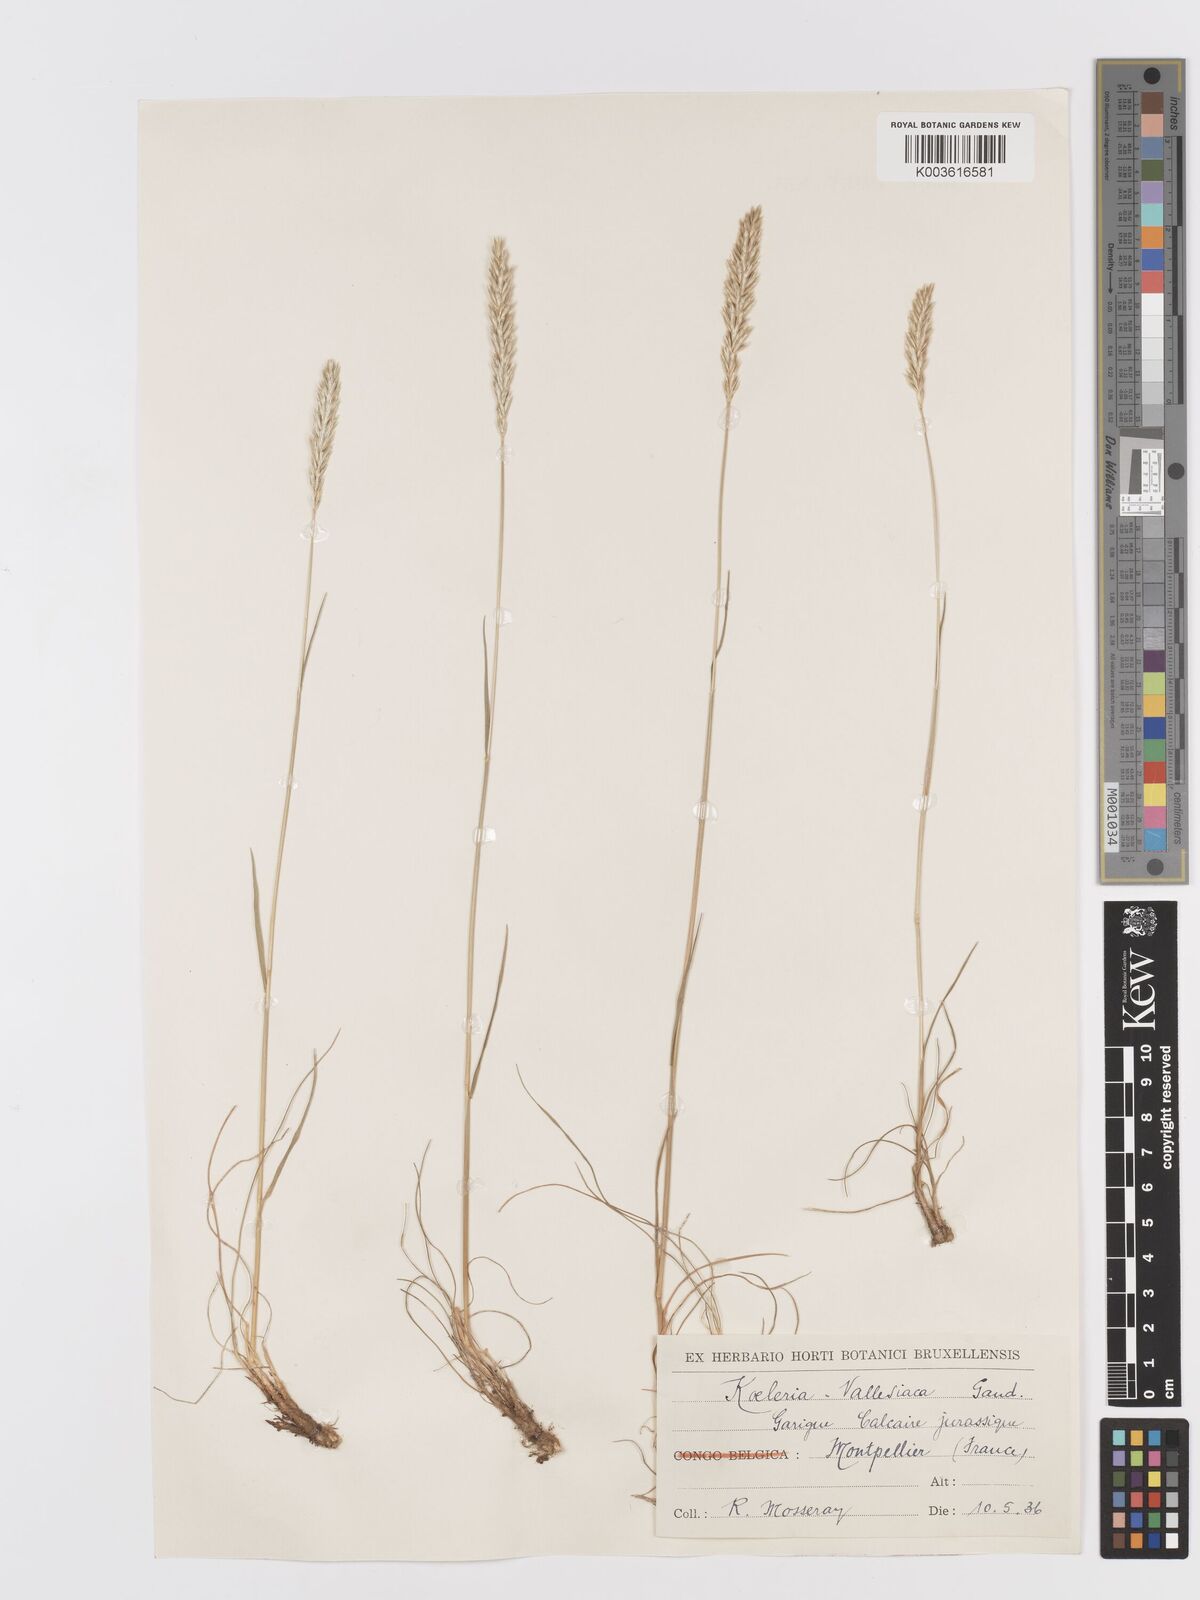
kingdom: Plantae
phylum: Tracheophyta
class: Liliopsida
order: Poales
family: Poaceae
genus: Koeleria
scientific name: Koeleria vallesiana
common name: Somerset hair-grass
